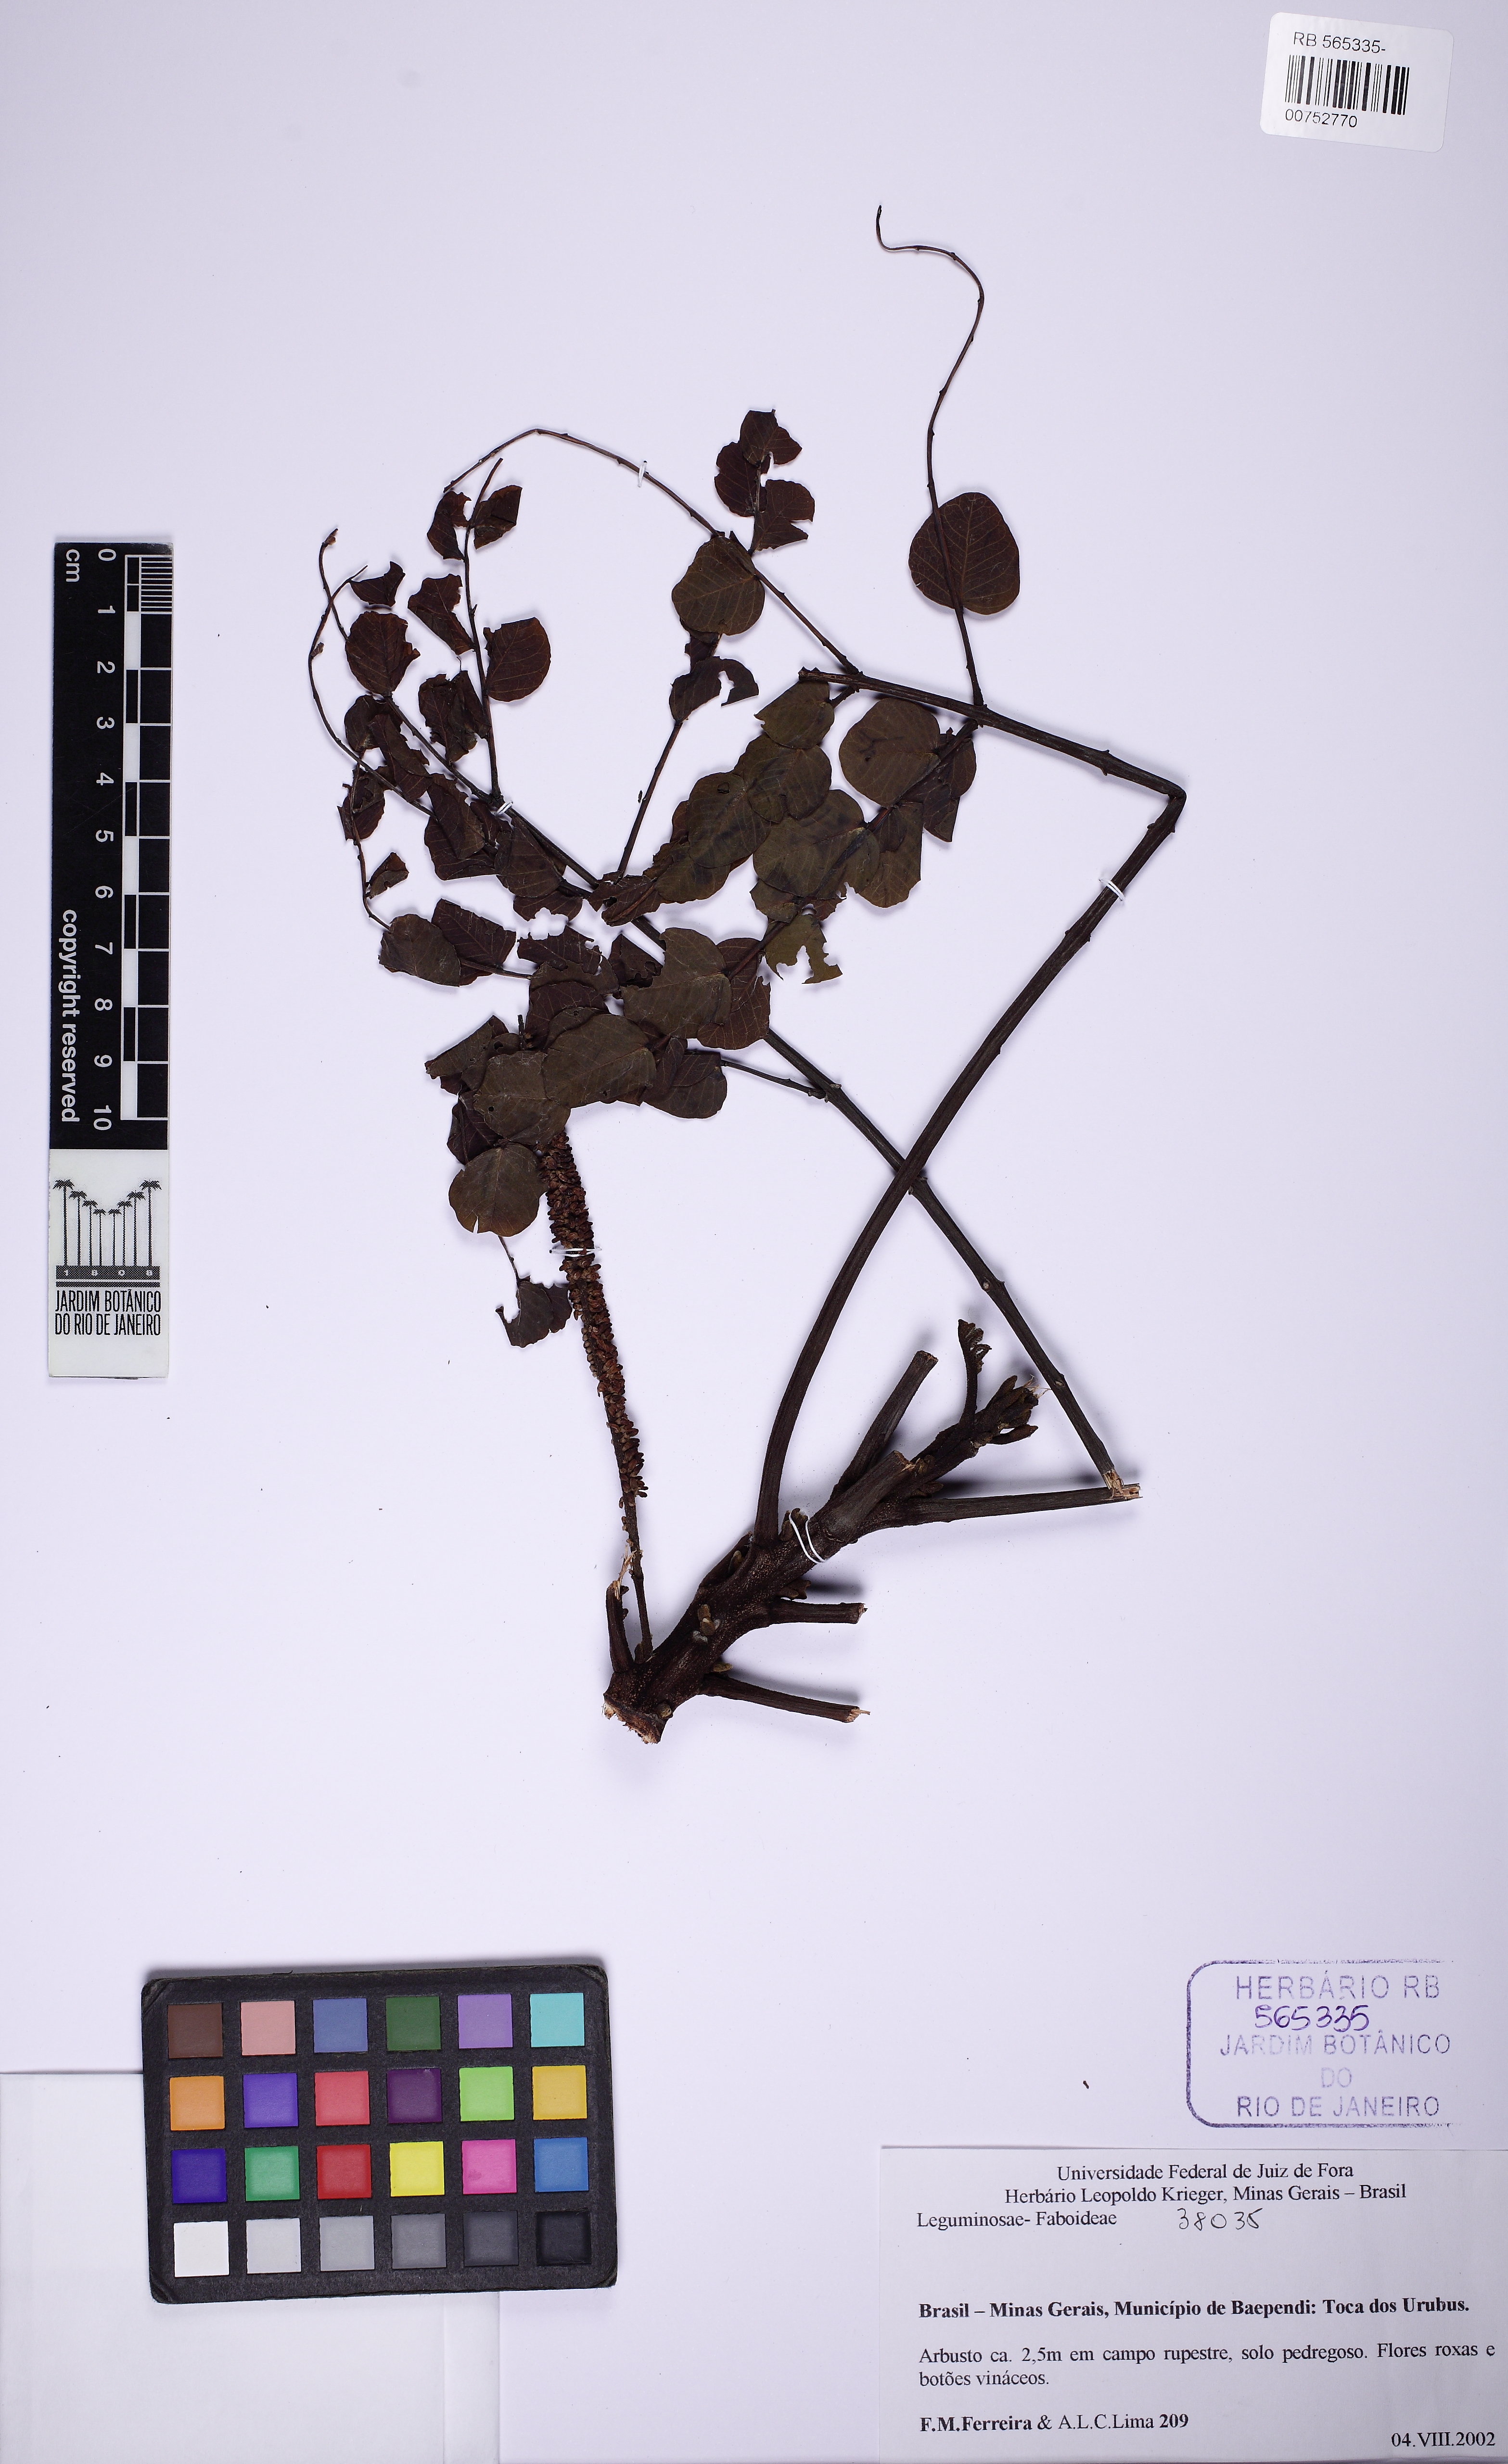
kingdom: Plantae
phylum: Tracheophyta
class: Magnoliopsida
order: Fabales
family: Fabaceae
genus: Stryphnodendron
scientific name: Stryphnodendron
